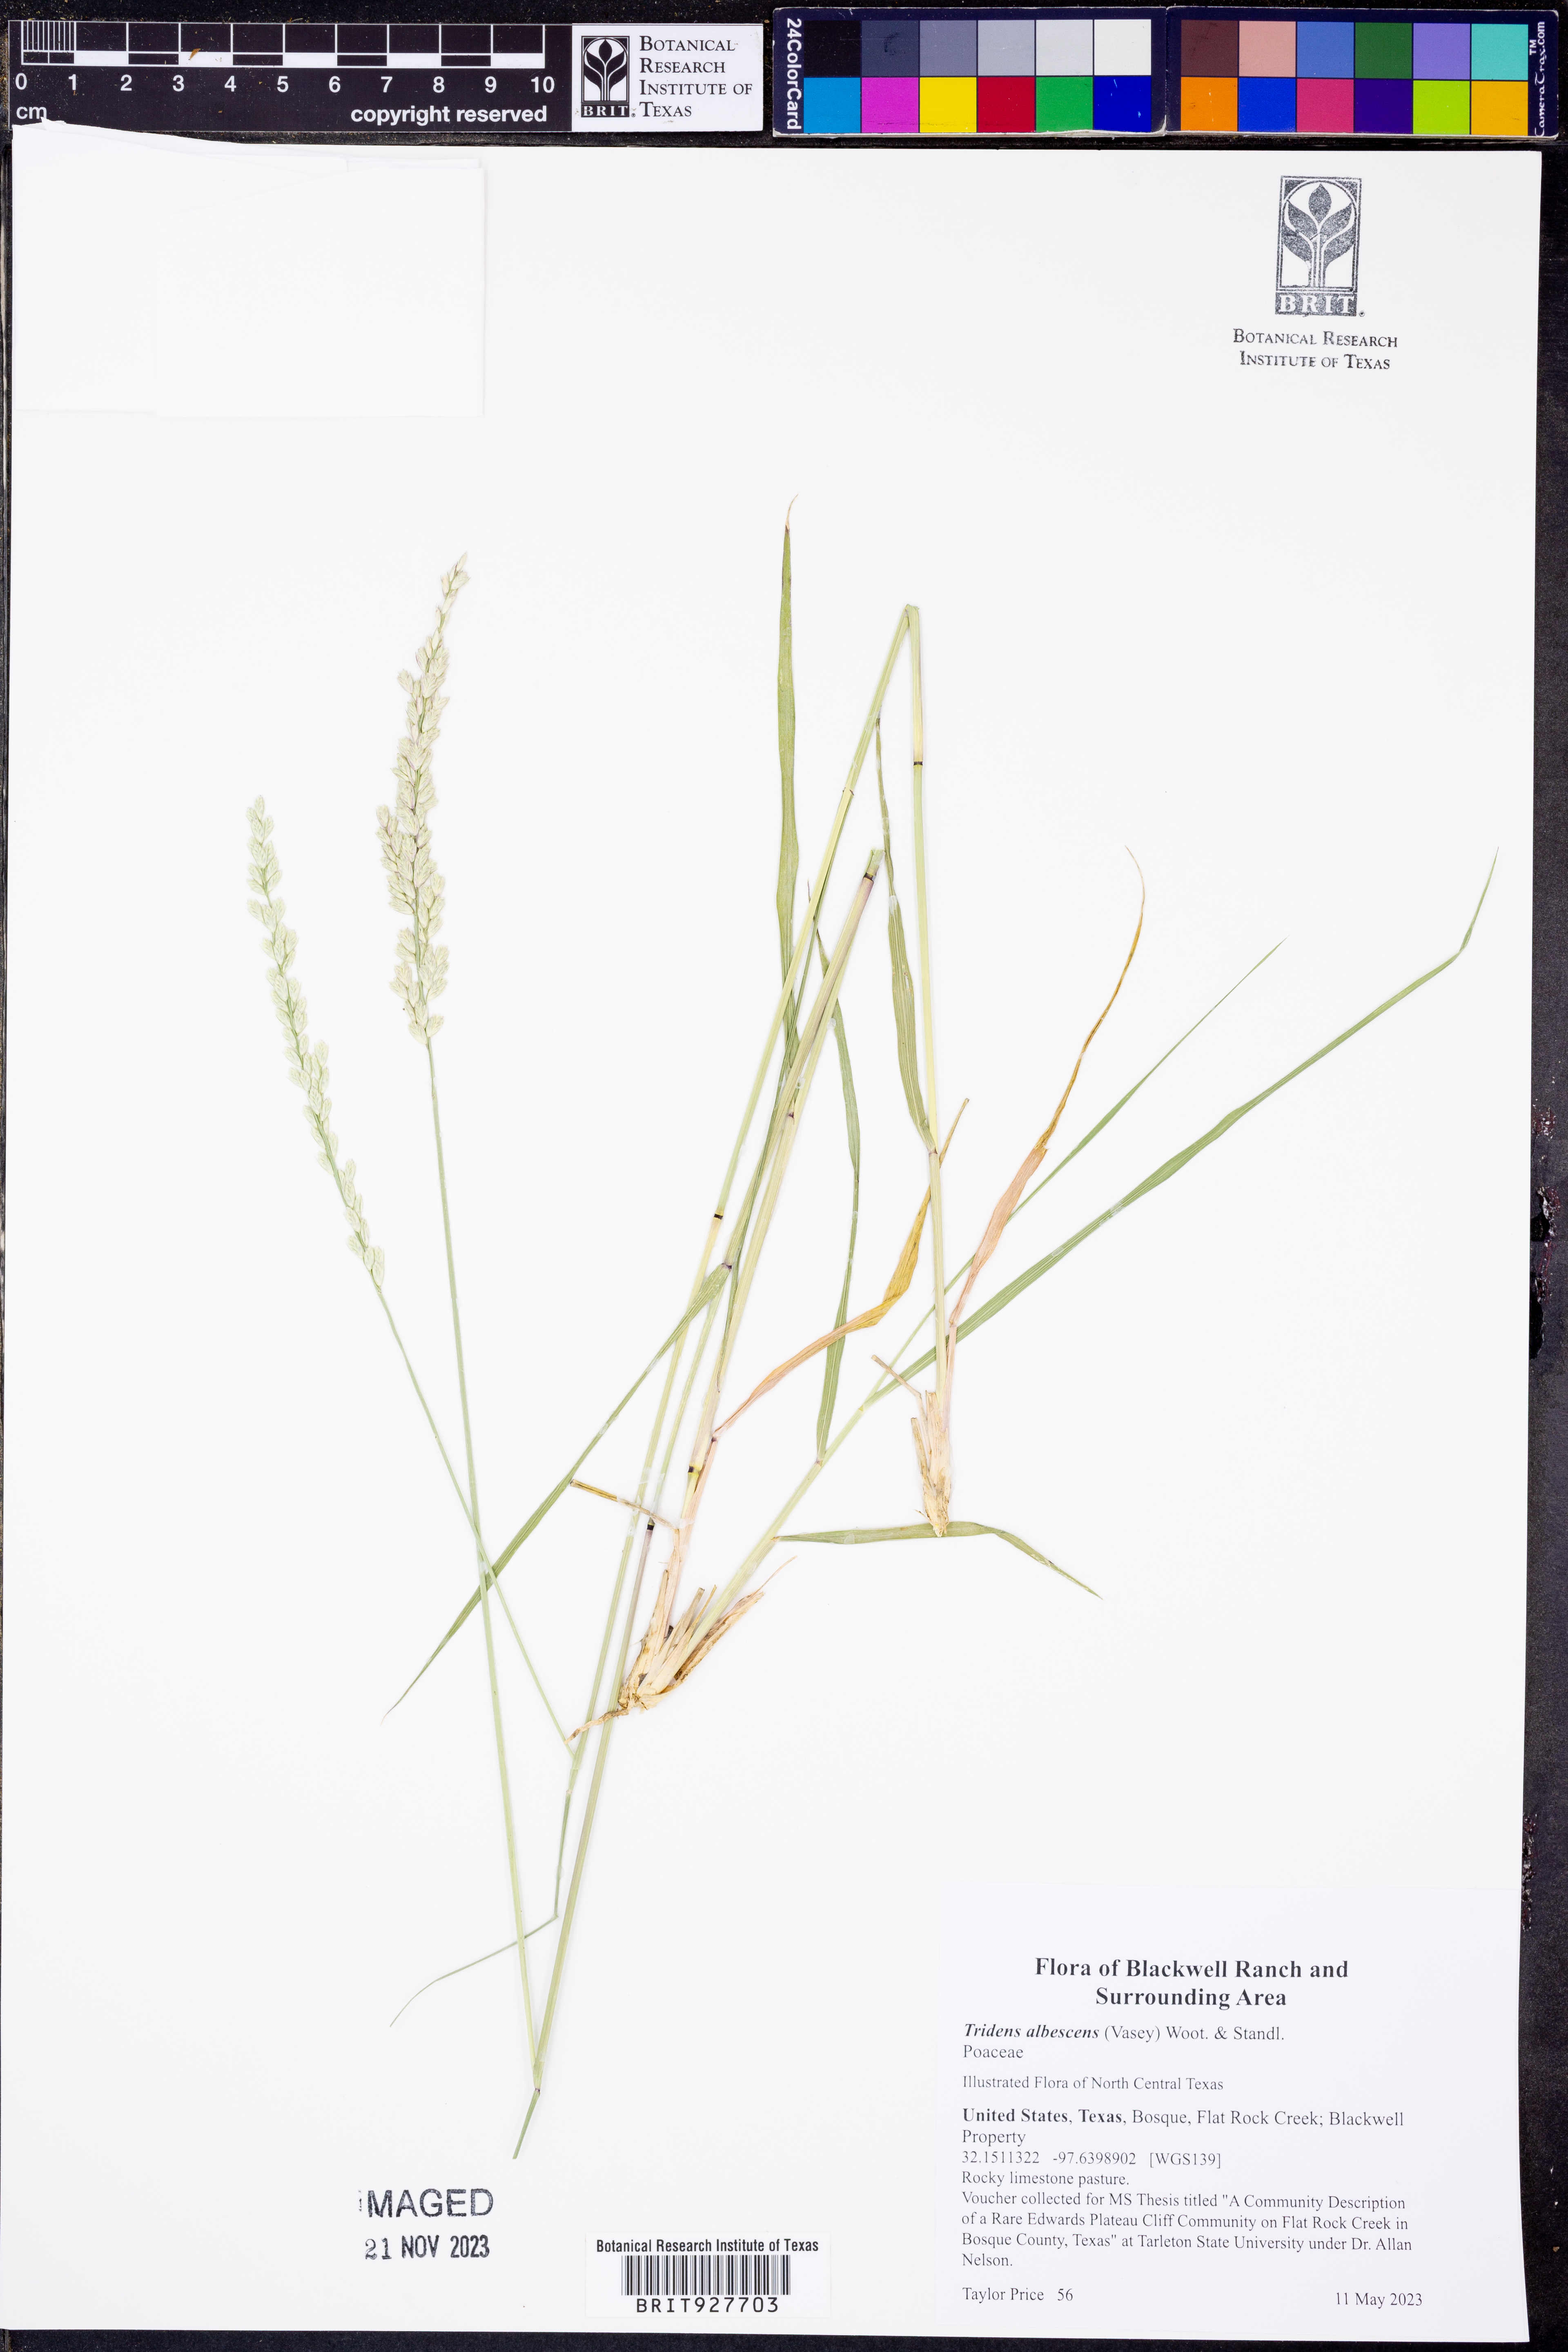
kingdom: Plantae
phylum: Tracheophyta
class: Liliopsida
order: Poales
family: Poaceae
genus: Tridens
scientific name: Tridens albescens
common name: White tridens
